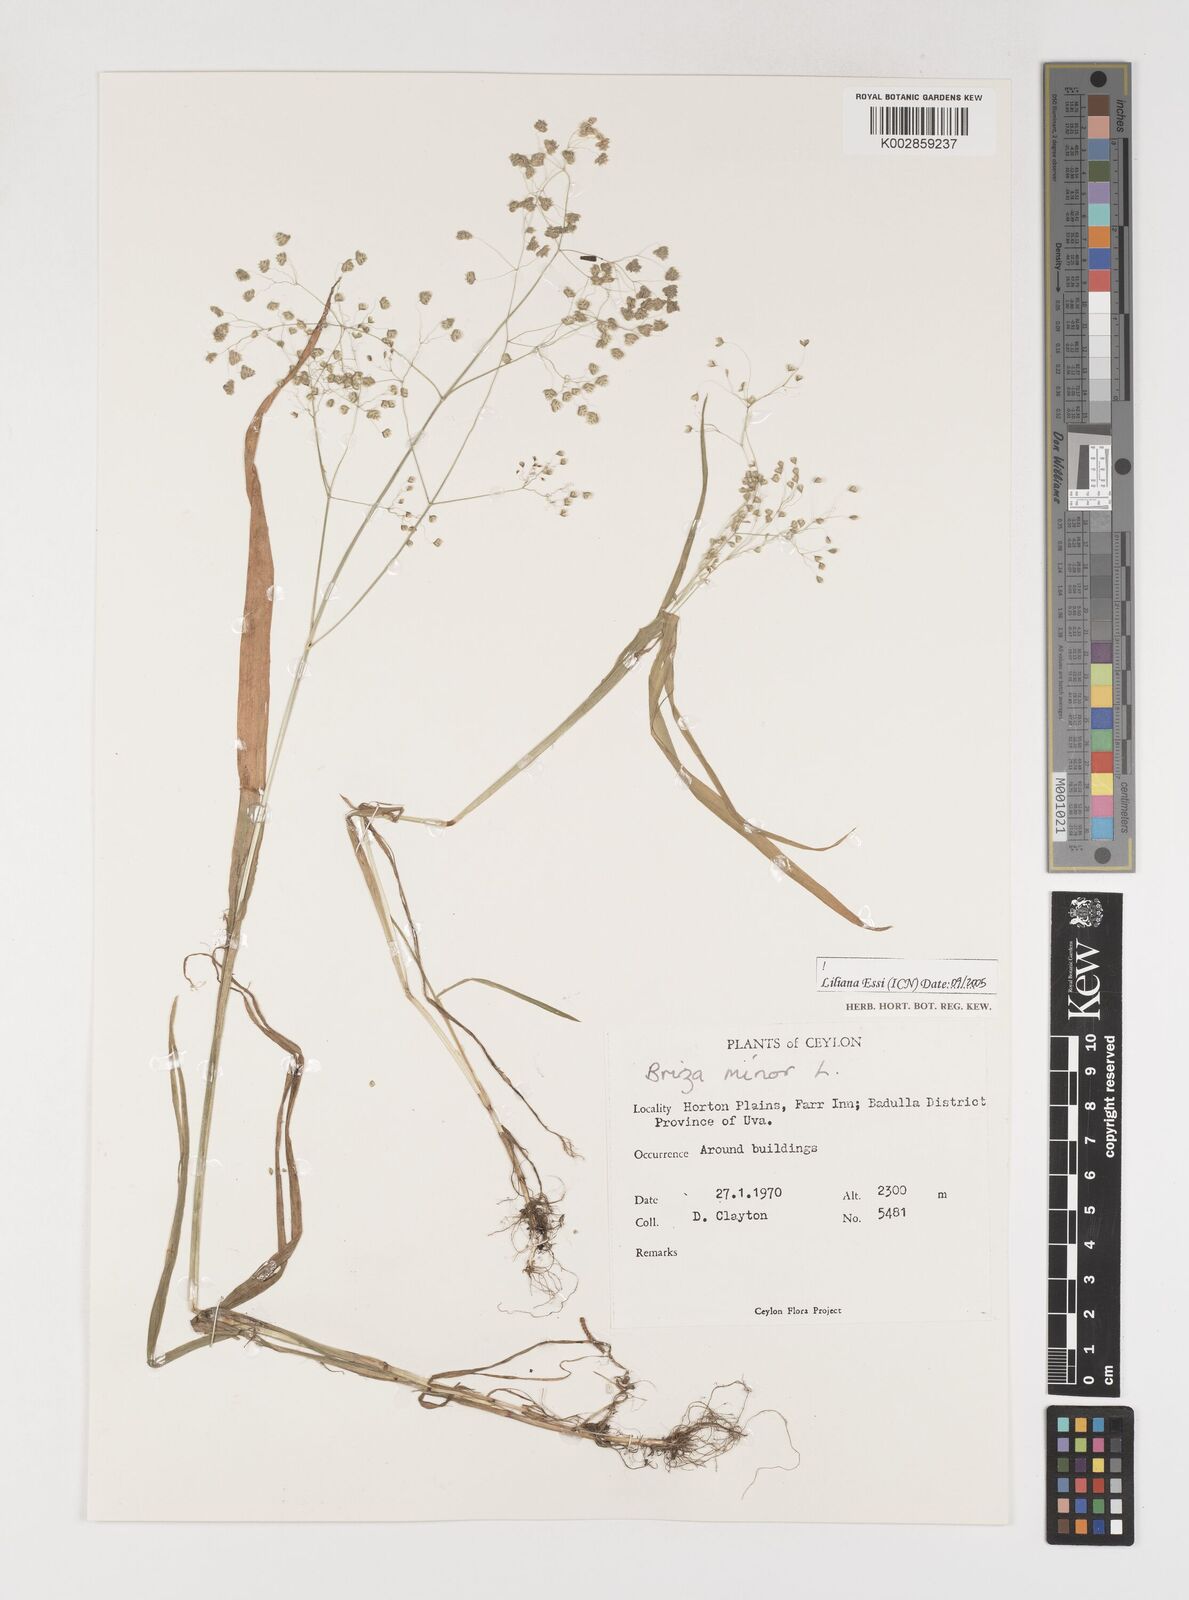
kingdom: Plantae
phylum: Tracheophyta
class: Liliopsida
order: Poales
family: Poaceae
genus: Briza
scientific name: Briza minor
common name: Lesser quaking-grass
